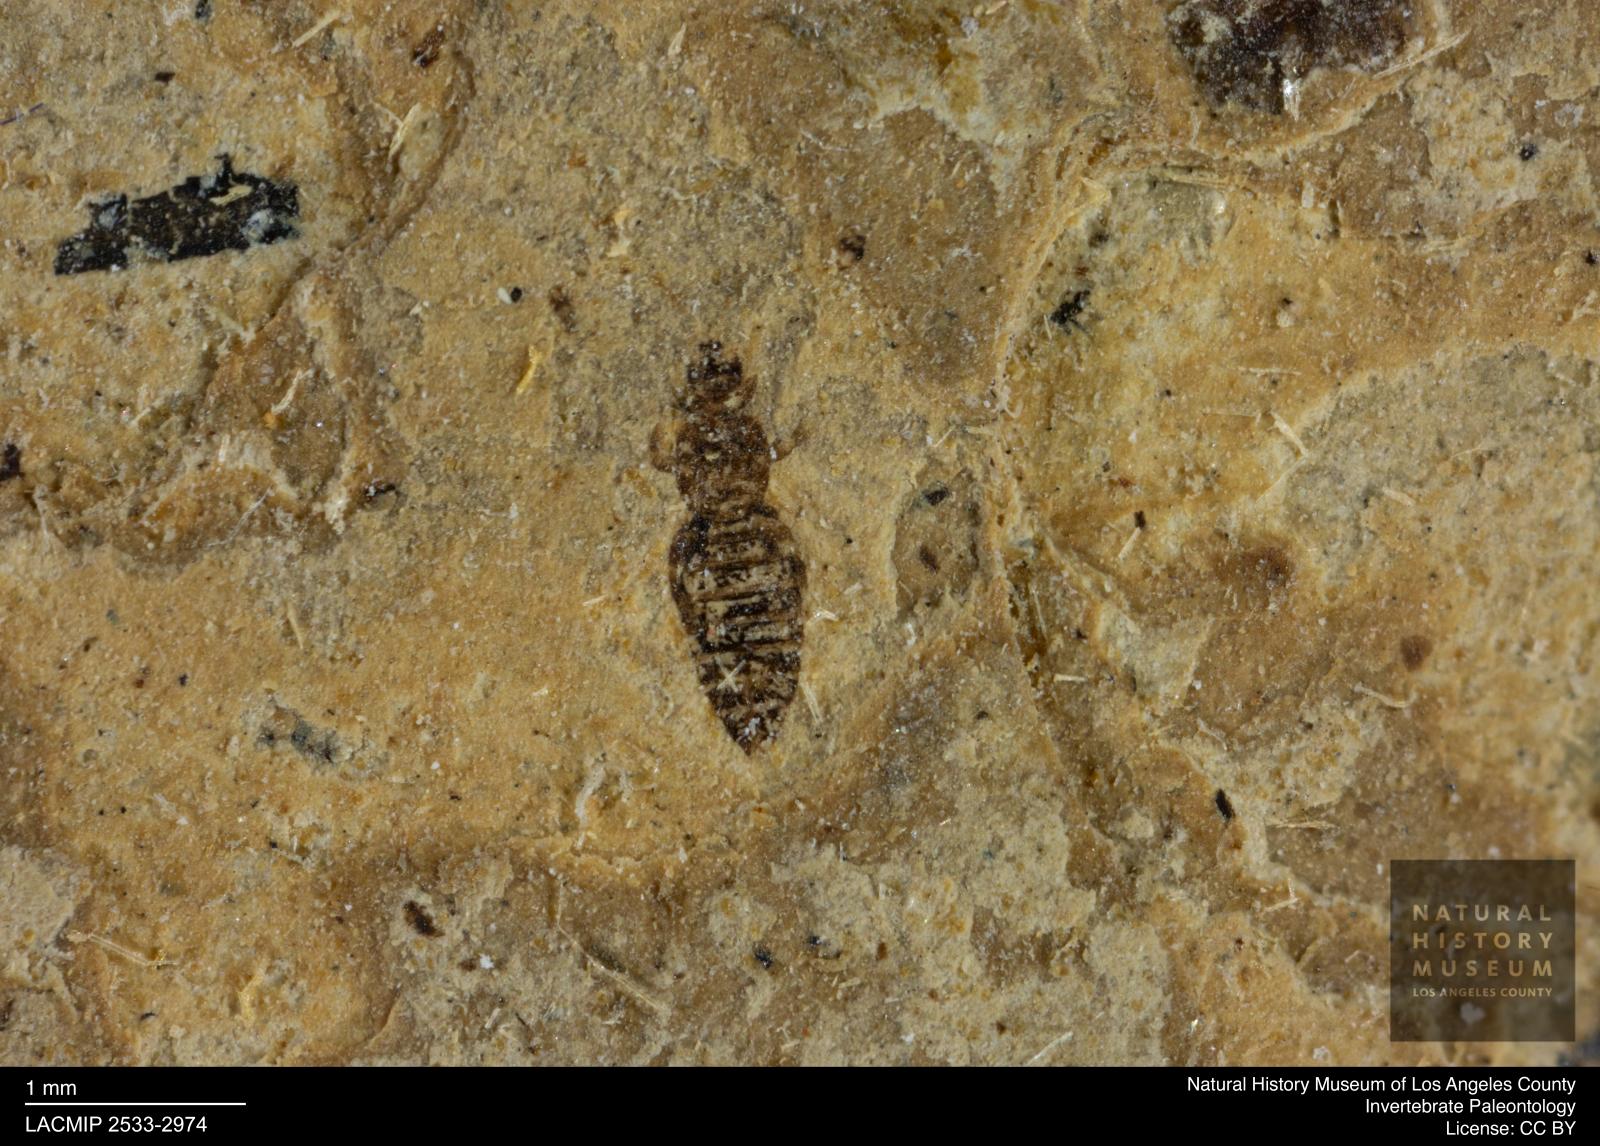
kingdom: Animalia
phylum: Arthropoda
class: Insecta
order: Thysanoptera
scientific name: Thysanoptera
